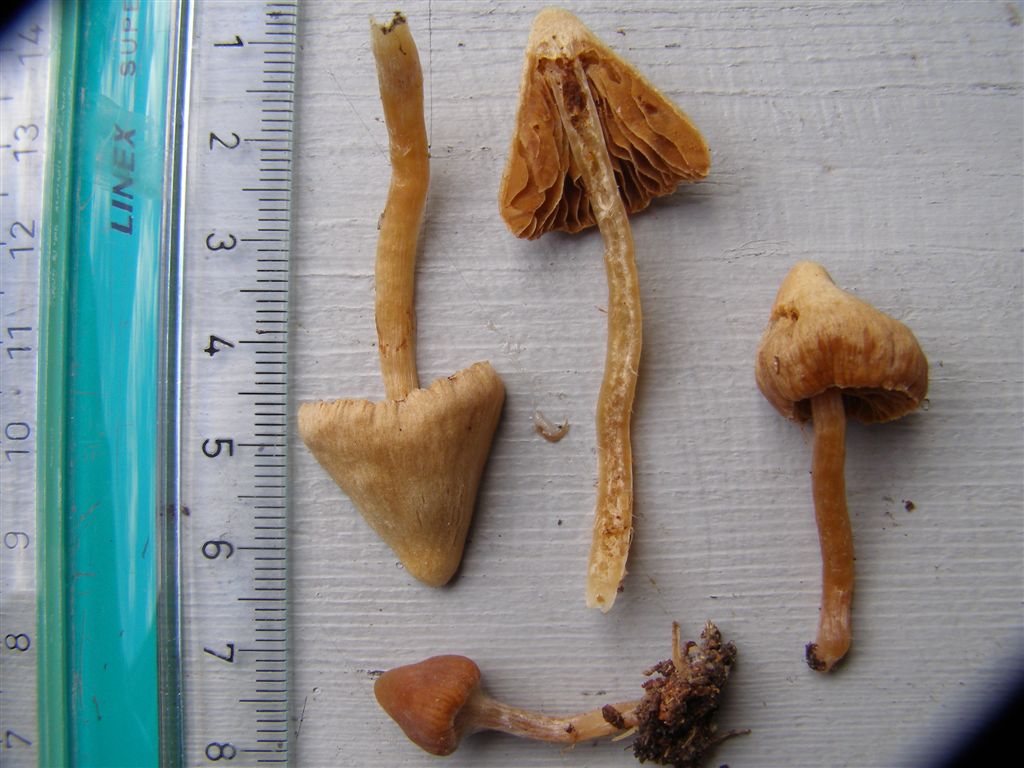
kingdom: Fungi
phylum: Basidiomycota
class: Agaricomycetes
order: Agaricales
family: Cortinariaceae
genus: Cortinarius
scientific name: Cortinarius acutus
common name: spids slørhat
